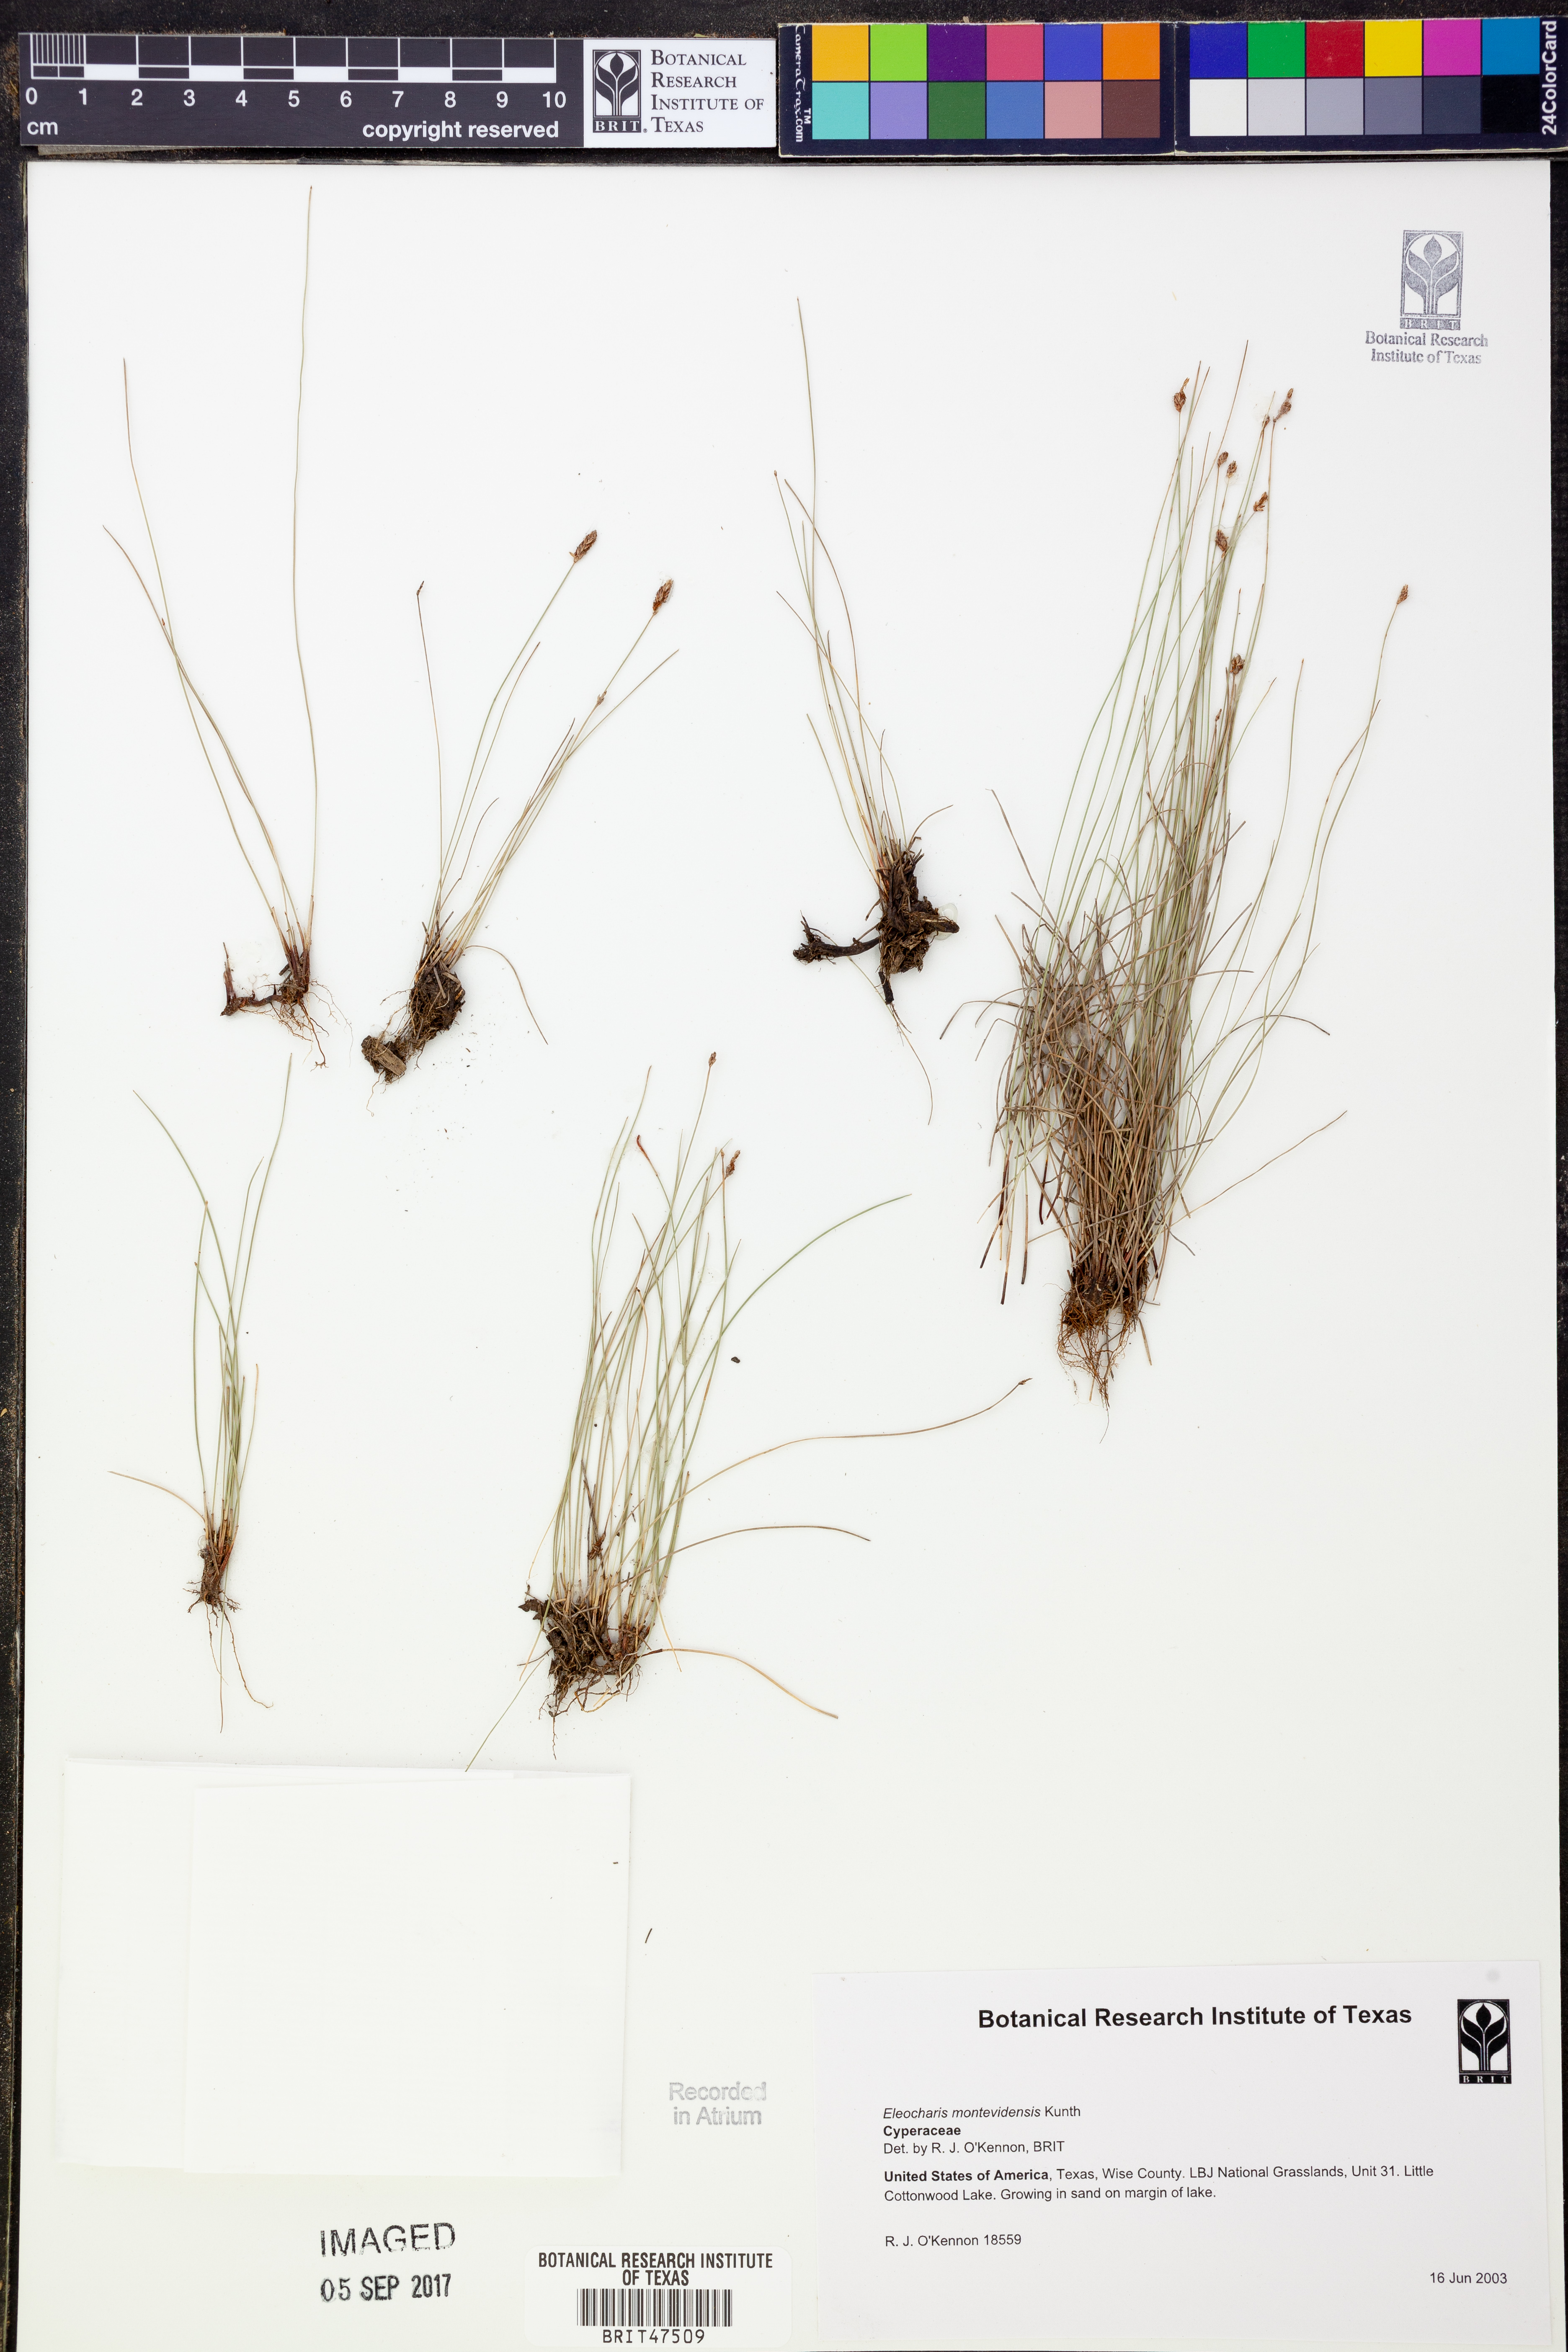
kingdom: Plantae
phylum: Tracheophyta
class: Liliopsida
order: Poales
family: Cyperaceae
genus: Eleocharis
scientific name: Eleocharis montevidensis
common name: Sand spike-rush
